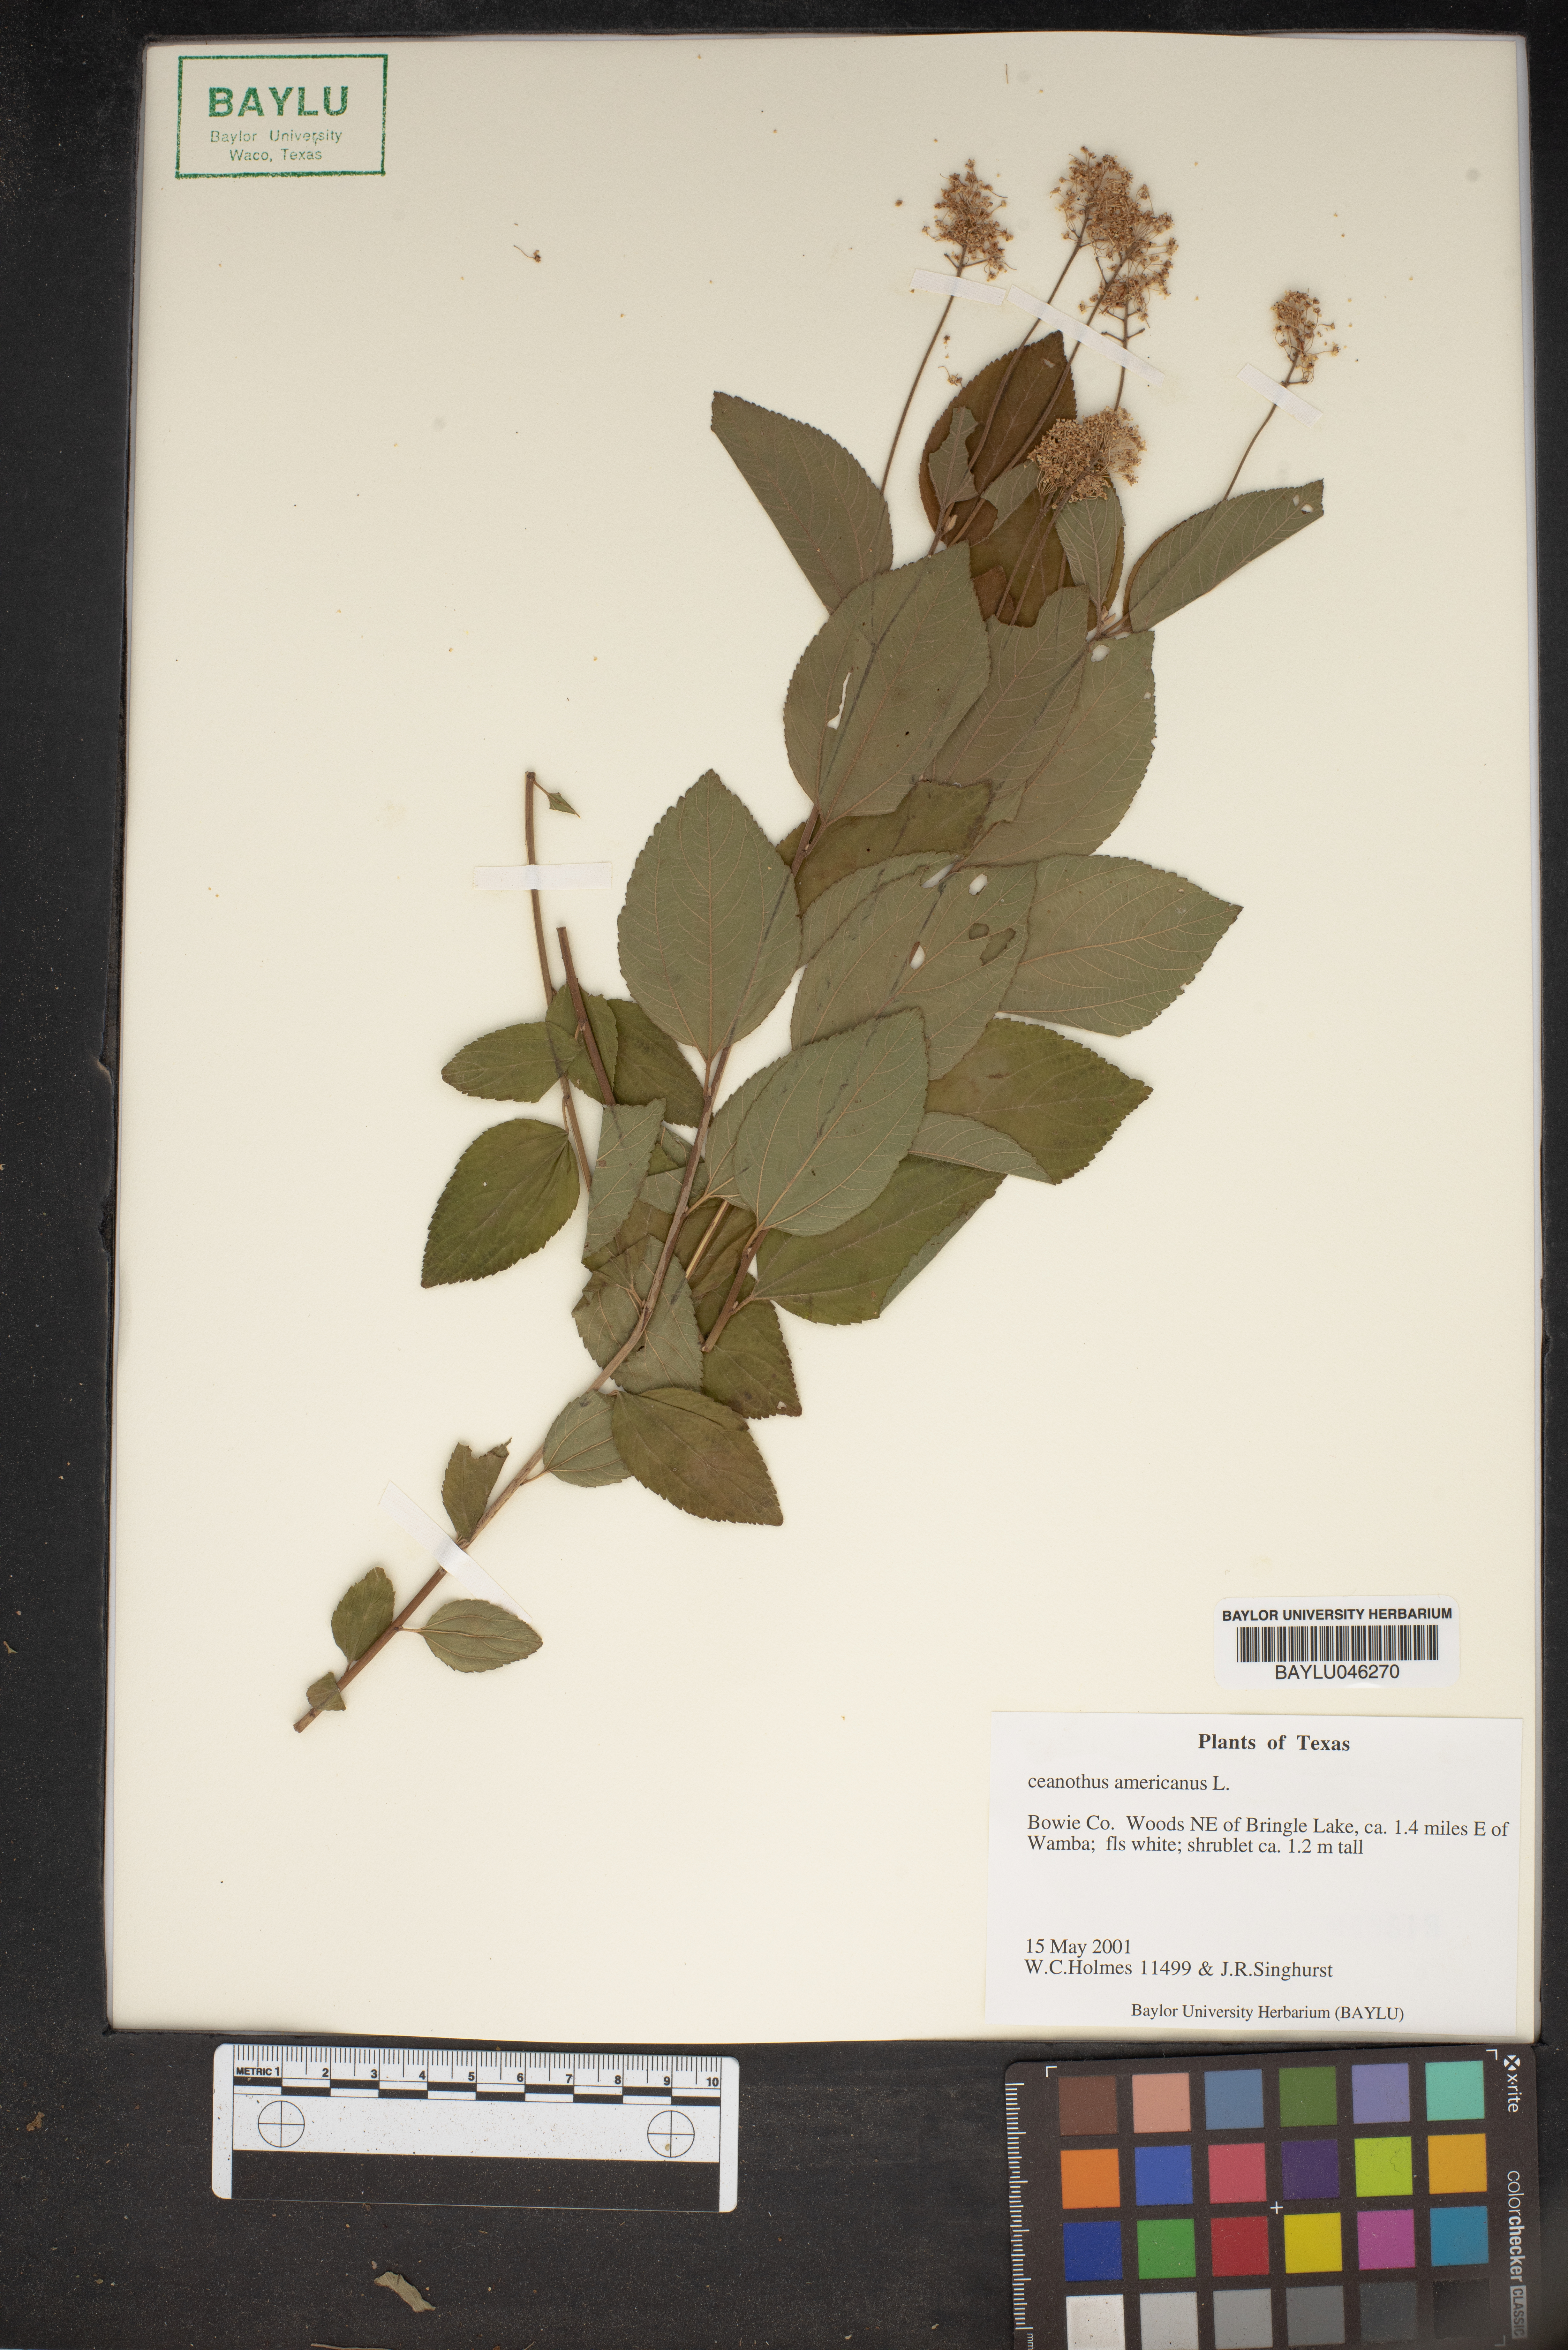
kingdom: Plantae
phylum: Tracheophyta
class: Magnoliopsida
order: Rosales
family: Rhamnaceae
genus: Ceanothus
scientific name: Ceanothus americanus
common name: Redroot
